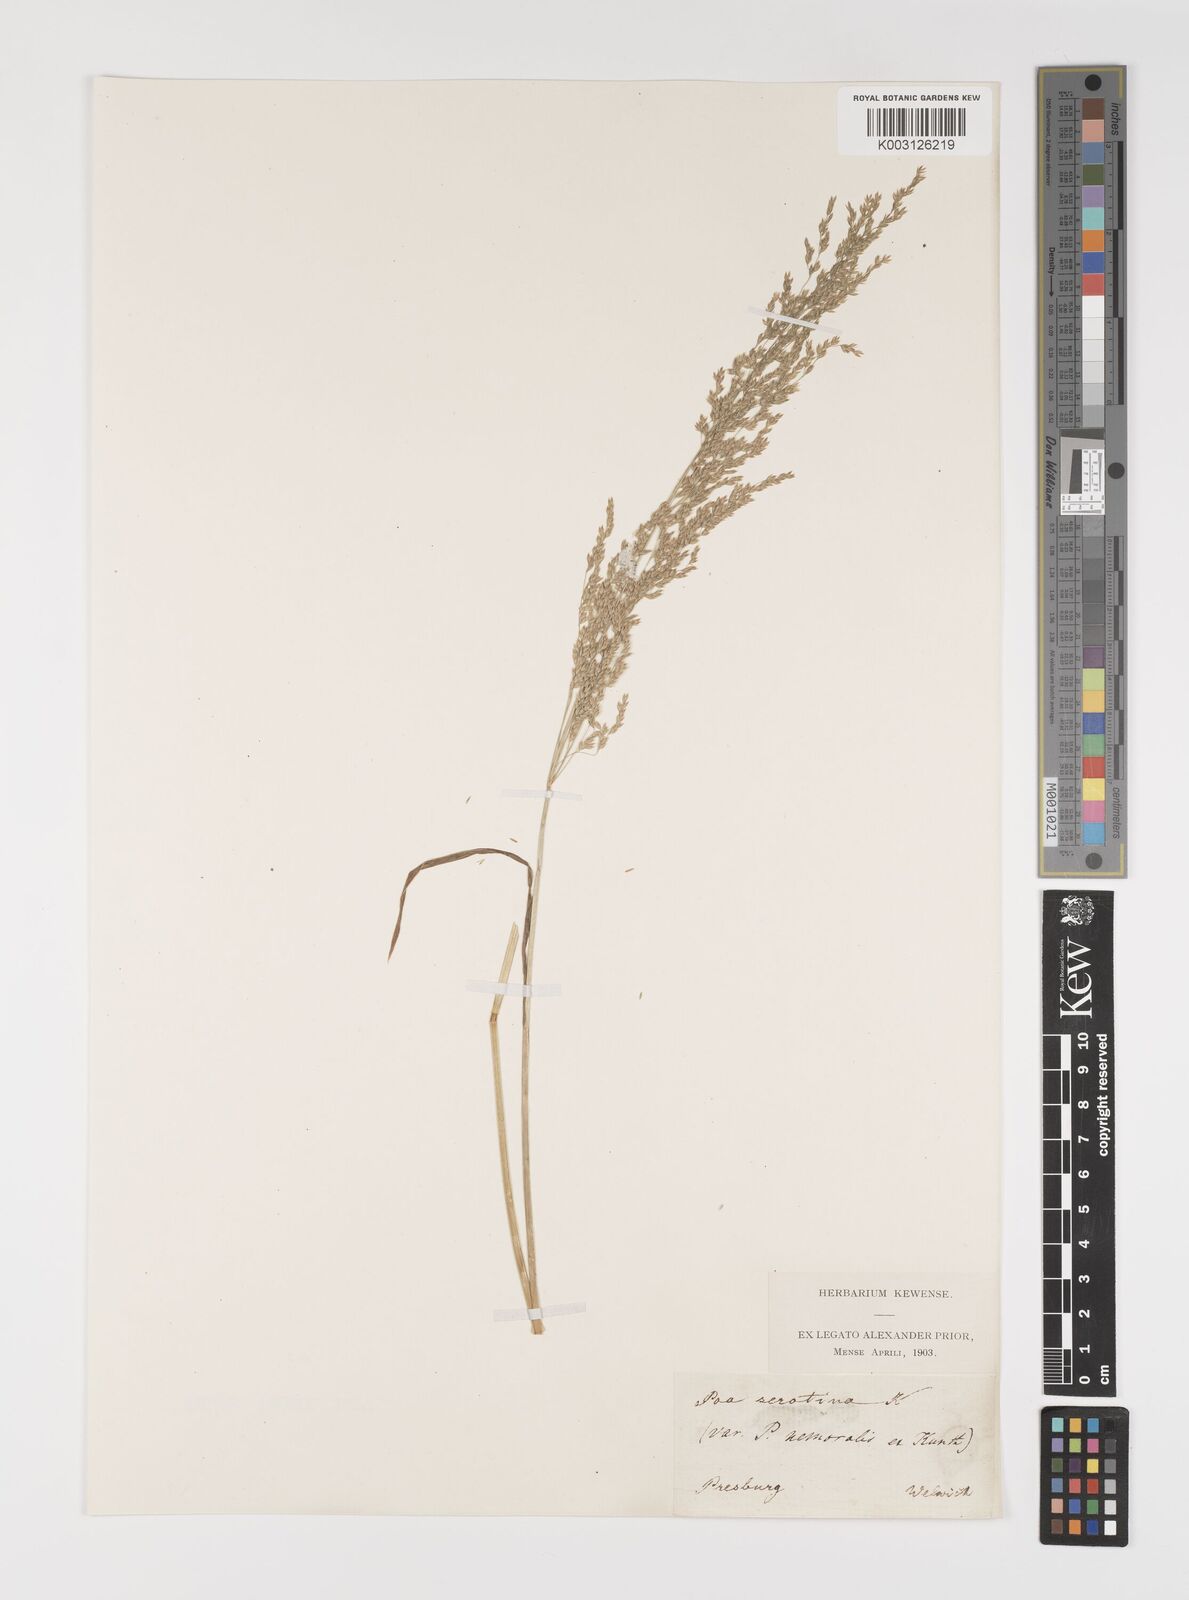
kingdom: Plantae
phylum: Tracheophyta
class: Liliopsida
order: Poales
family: Poaceae
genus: Poa
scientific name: Poa palustris
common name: Swamp meadow-grass
